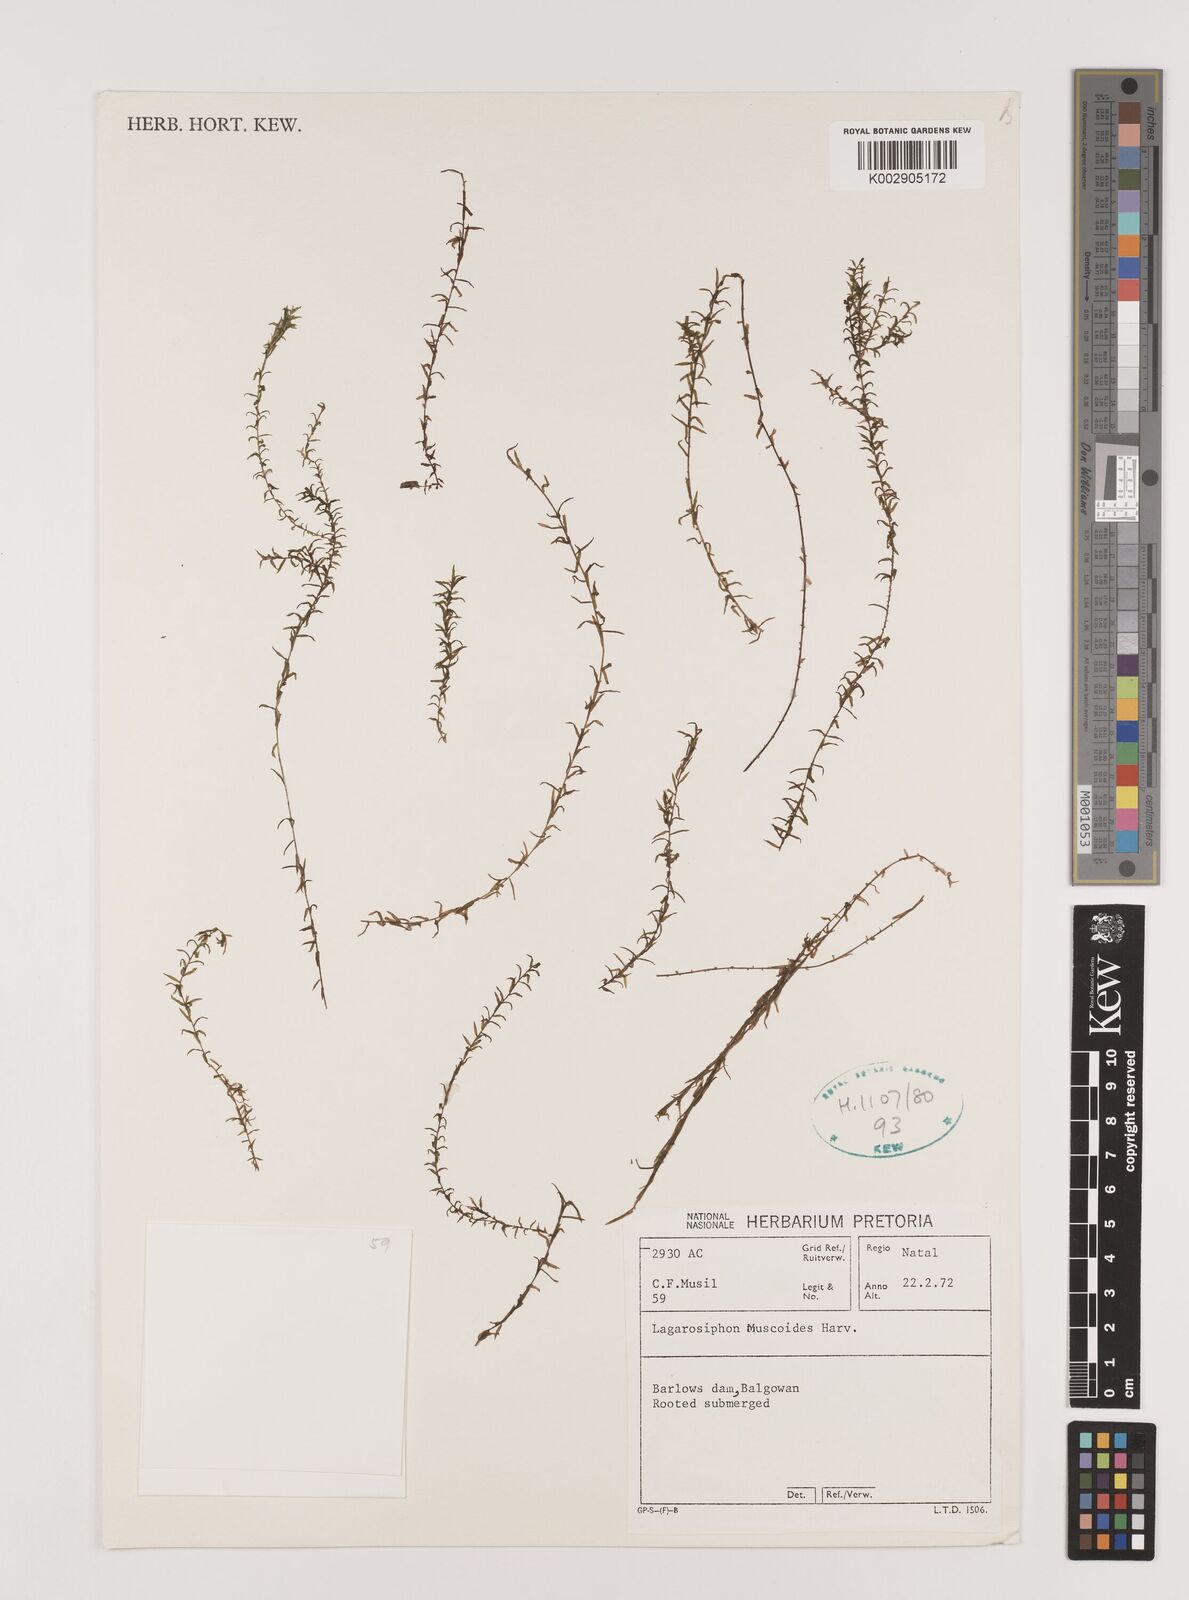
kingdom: Plantae
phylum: Tracheophyta
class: Liliopsida
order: Alismatales
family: Hydrocharitaceae
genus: Lagarosiphon
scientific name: Lagarosiphon muscoides
